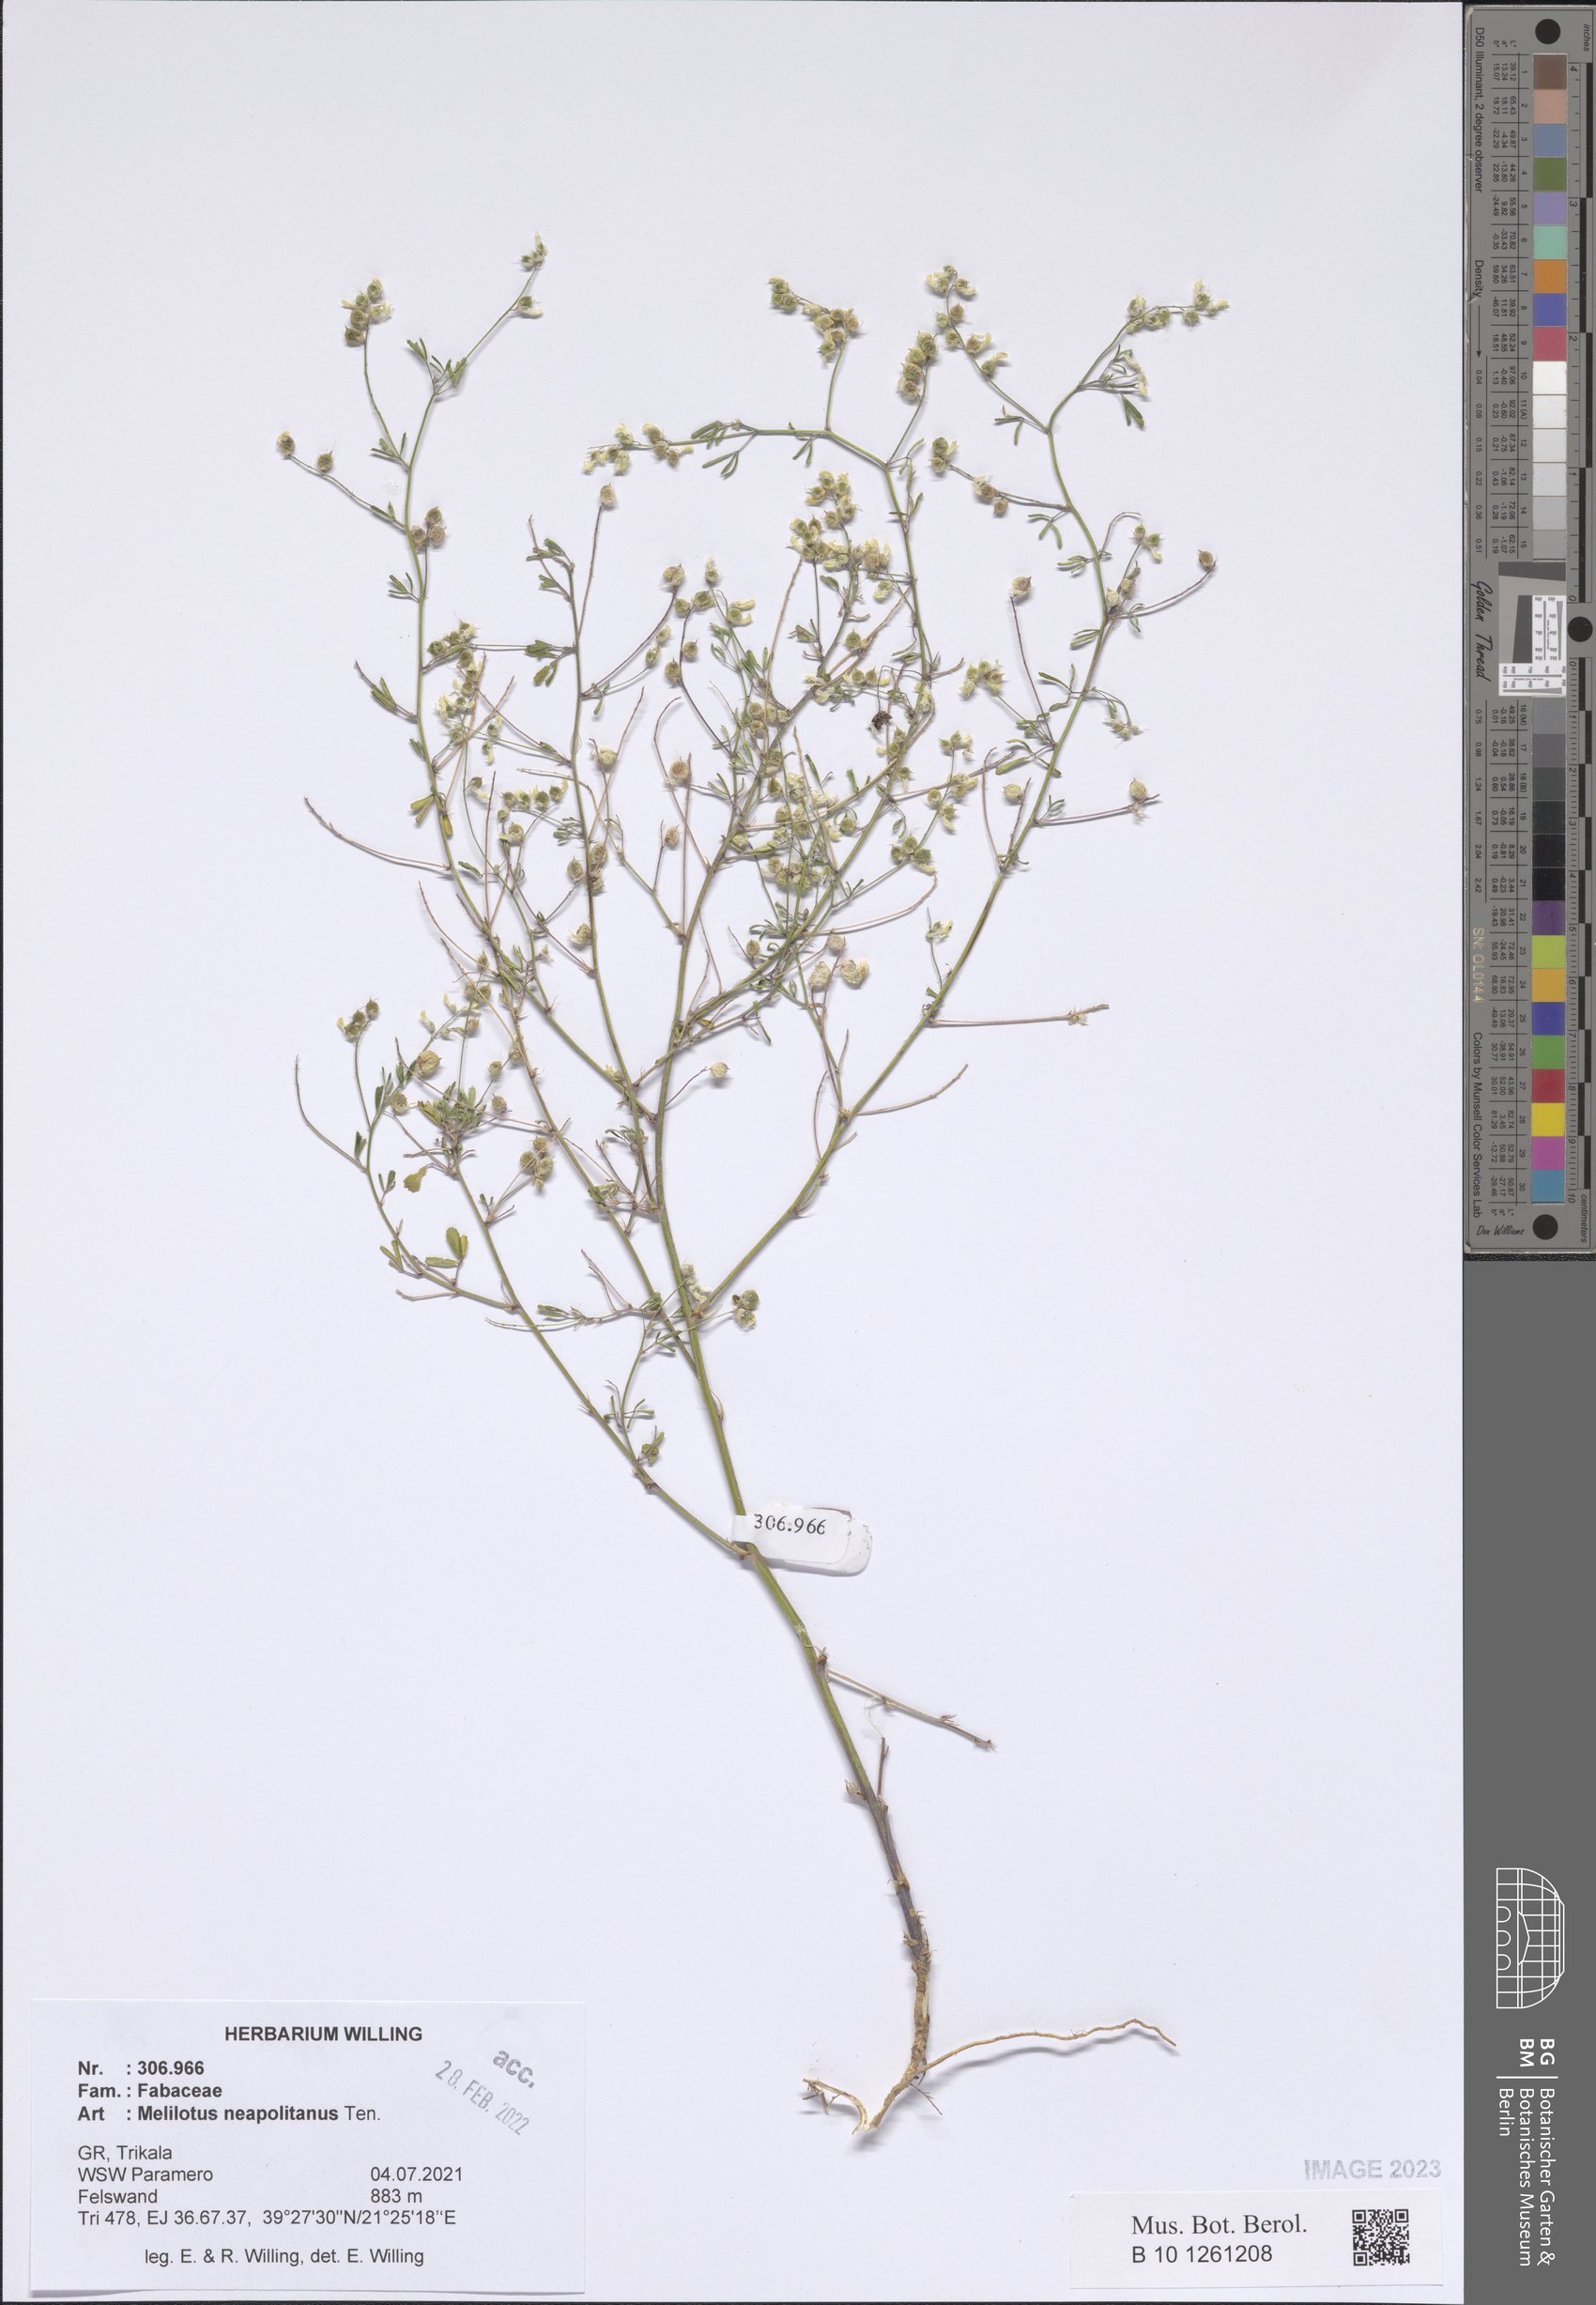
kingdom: Plantae
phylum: Tracheophyta
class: Magnoliopsida
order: Fabales
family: Fabaceae
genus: Melilotus
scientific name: Melilotus neapolitanus
